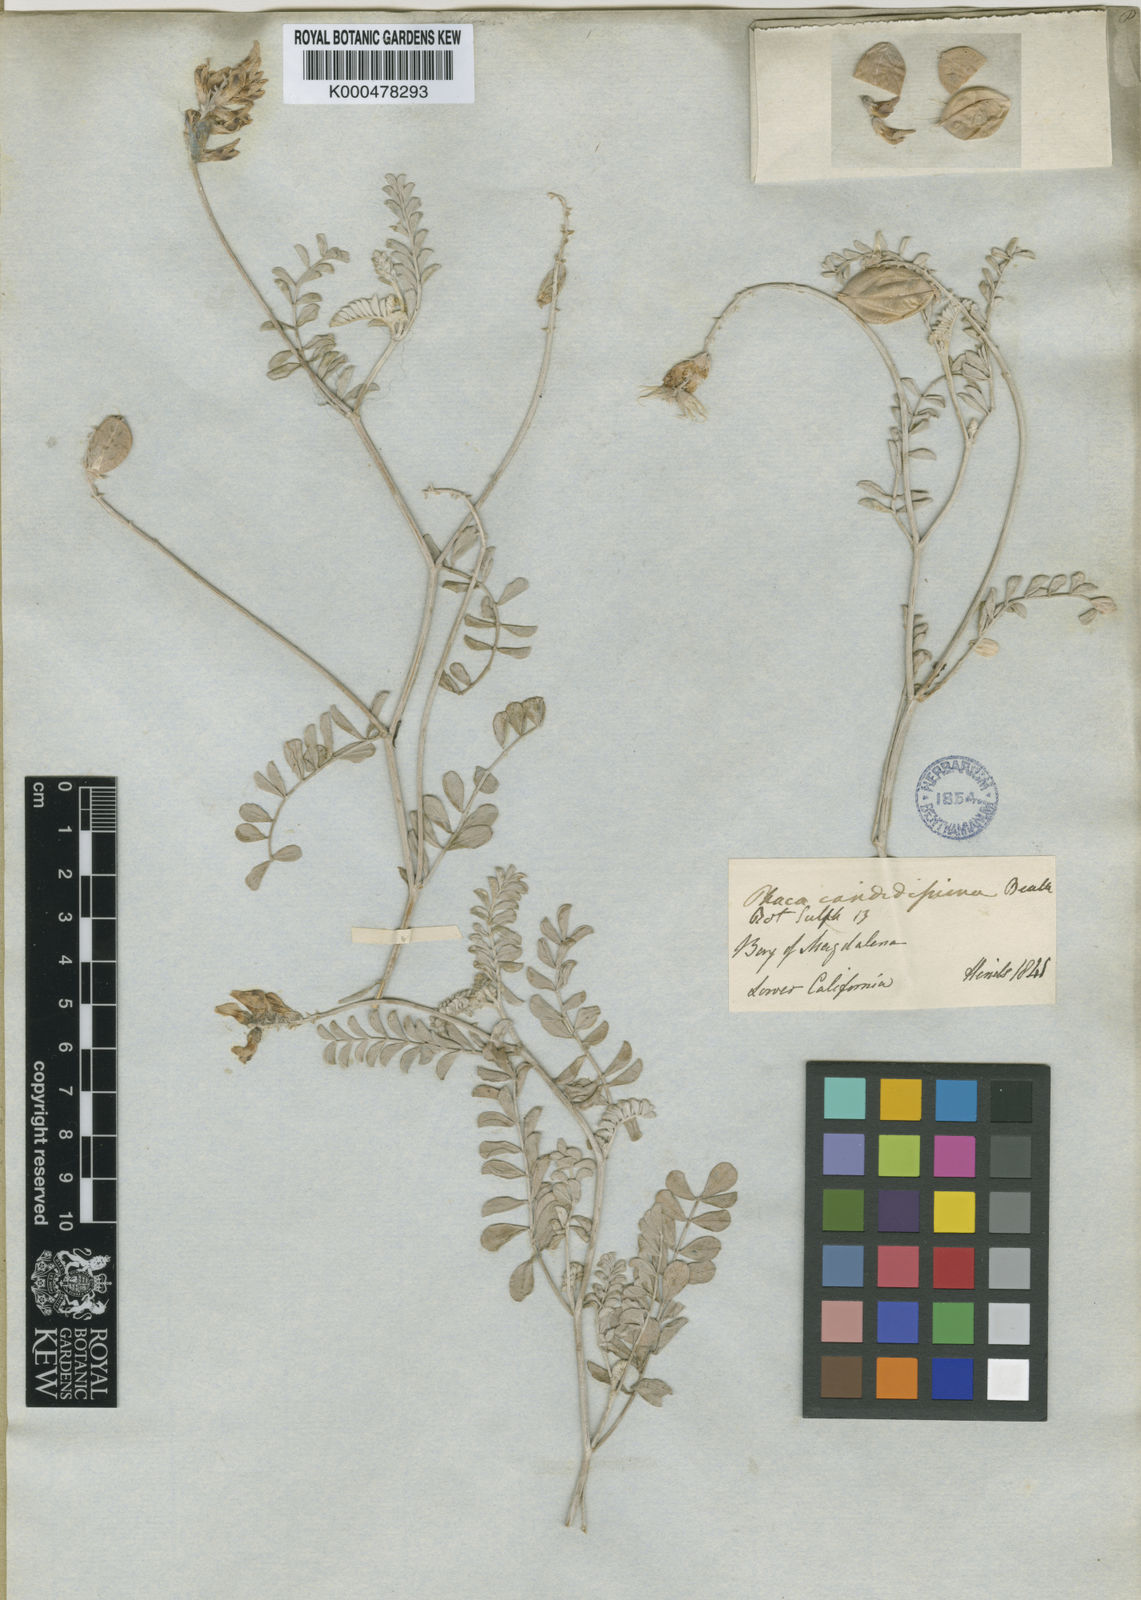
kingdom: Plantae
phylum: Tracheophyta
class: Magnoliopsida
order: Fabales
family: Fabaceae
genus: Astragalus
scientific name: Astragalus magdalenae
